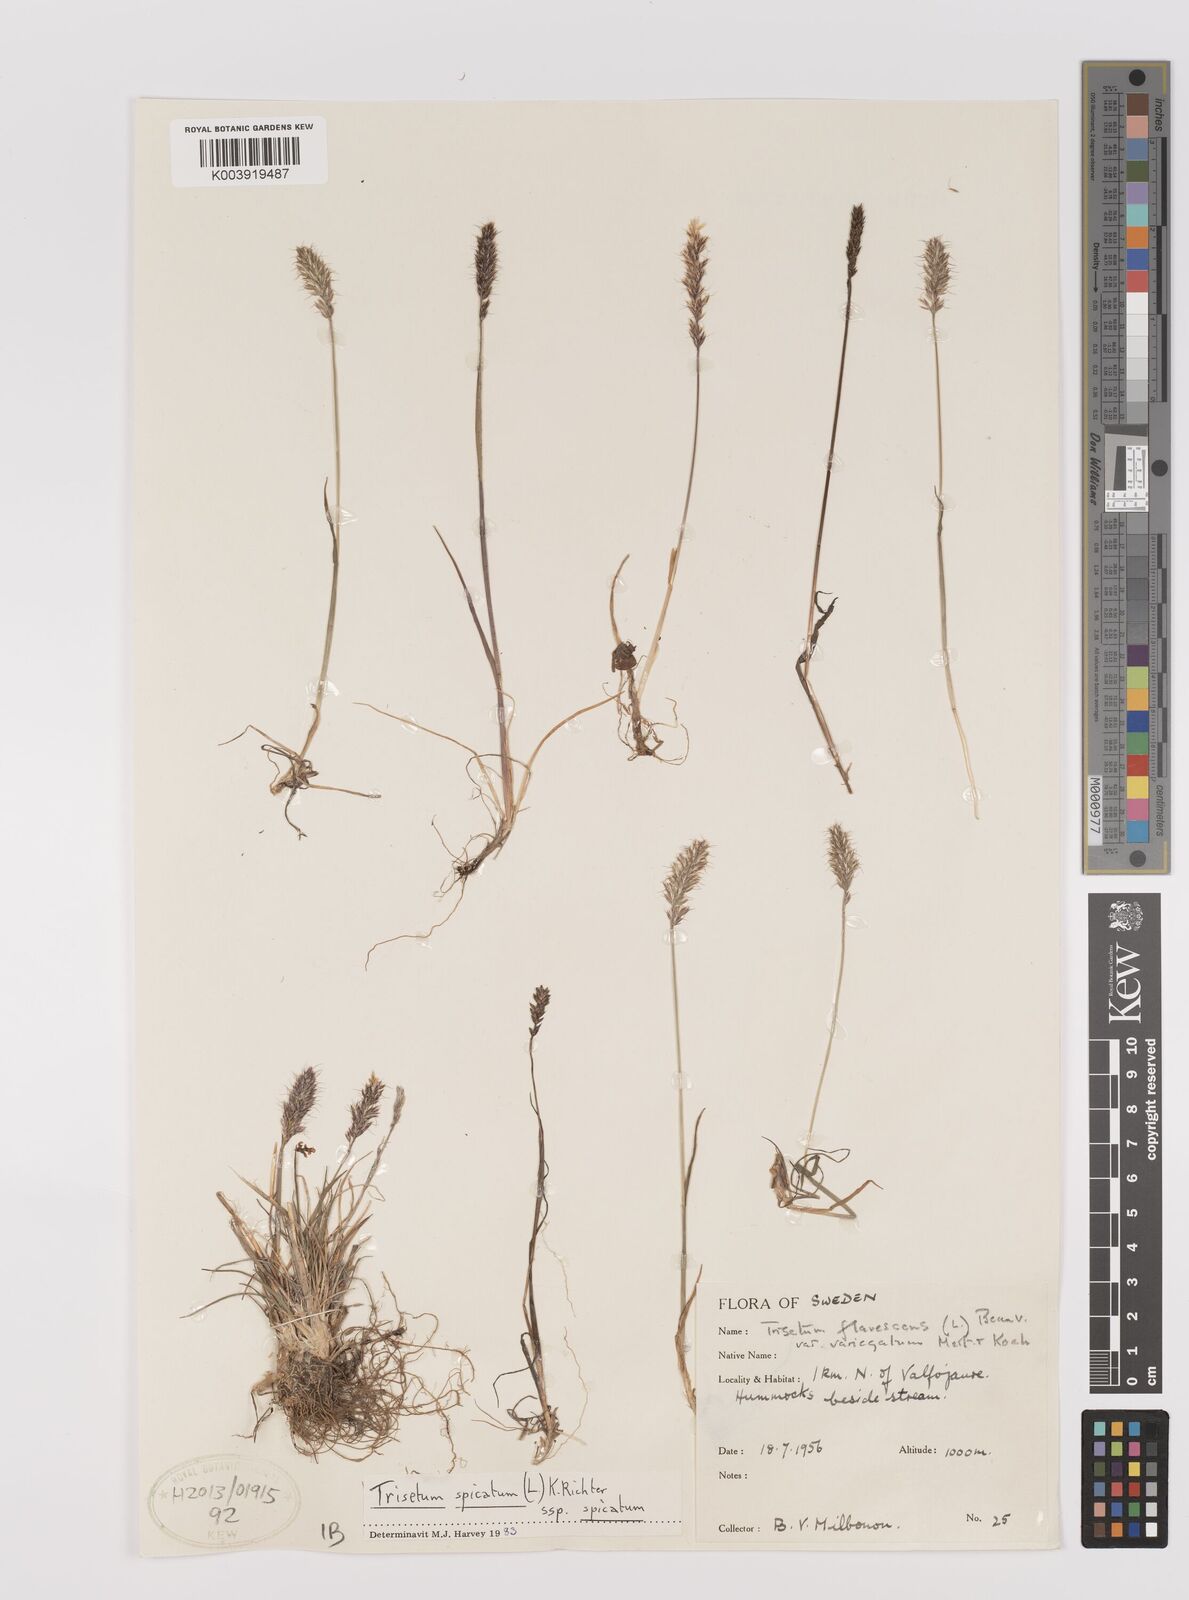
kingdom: Plantae
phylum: Tracheophyta
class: Liliopsida
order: Poales
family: Poaceae
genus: Koeleria
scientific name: Koeleria spicata
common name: Mountain trisetum
